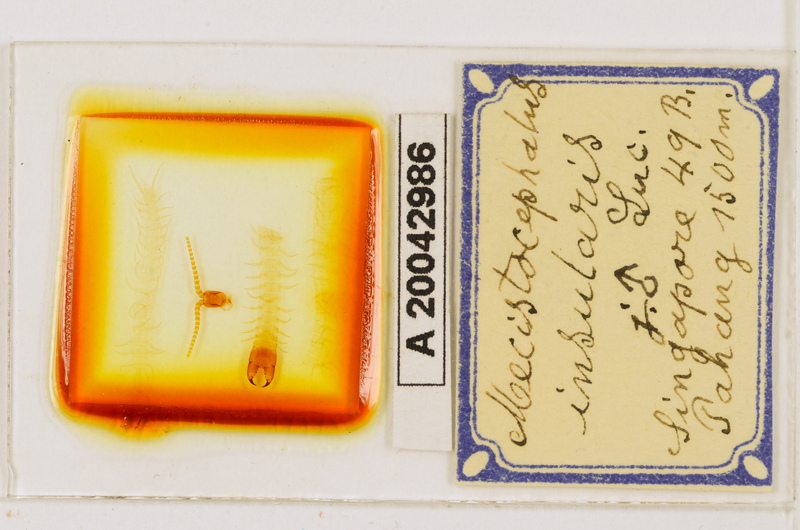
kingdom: Animalia
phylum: Arthropoda
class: Chilopoda
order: Geophilomorpha
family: Mecistocephalidae
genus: Mecistocephalus
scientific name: Mecistocephalus insularis
